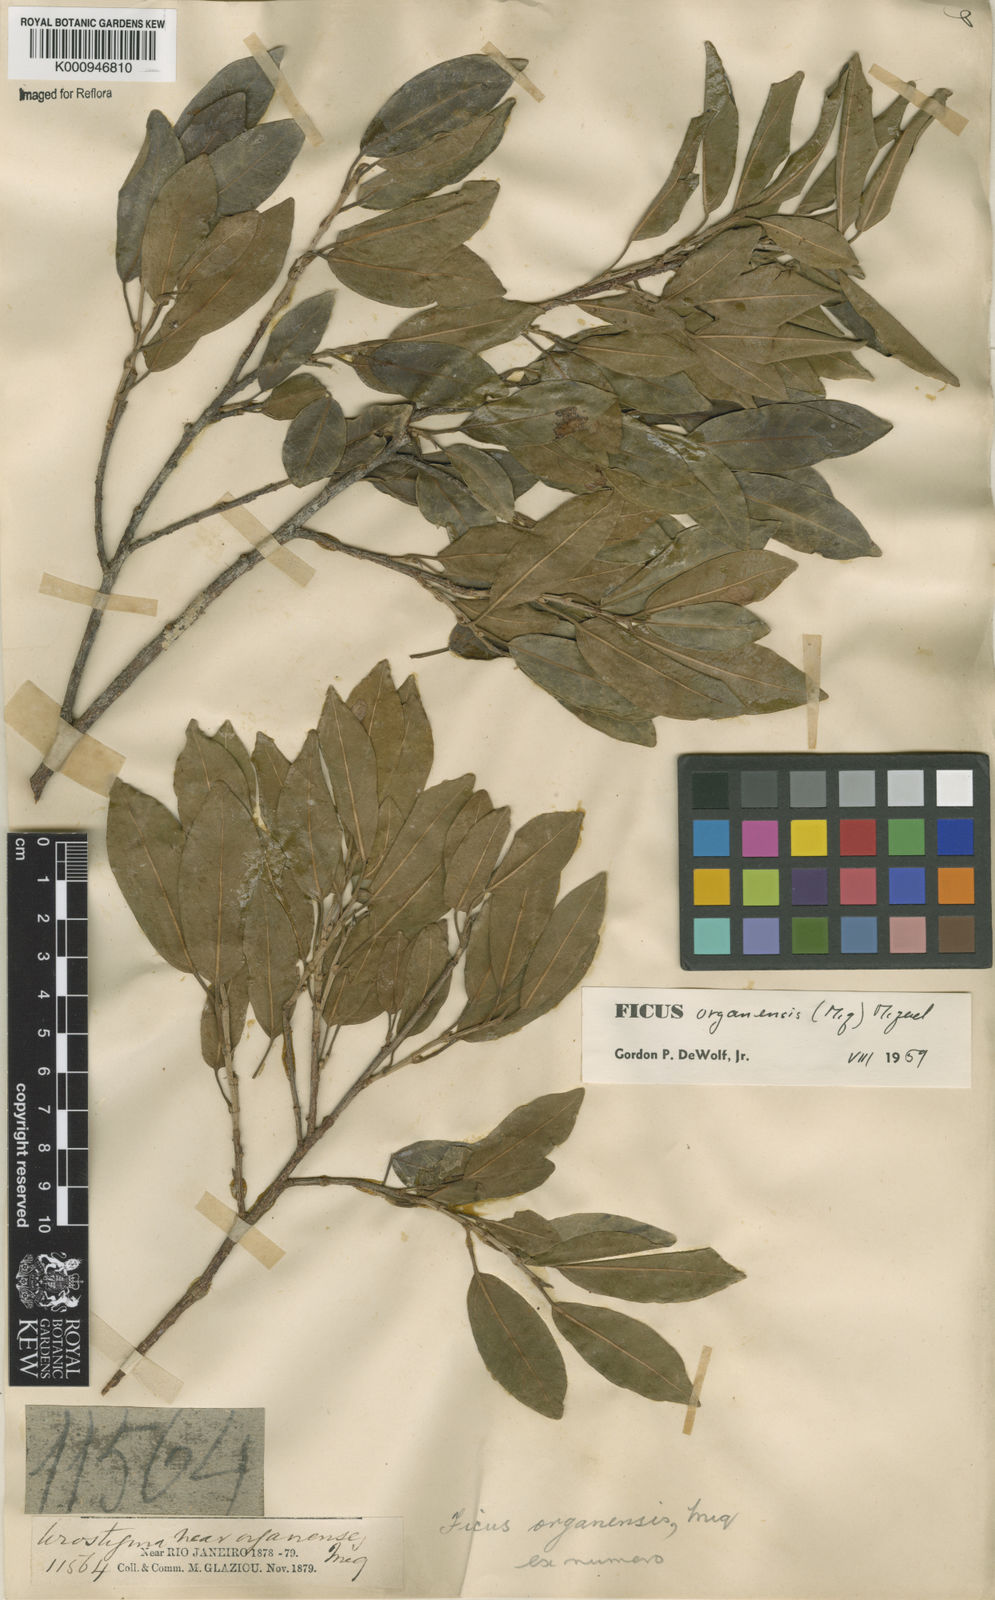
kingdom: Plantae
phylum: Tracheophyta
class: Magnoliopsida
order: Rosales
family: Moraceae
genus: Ficus
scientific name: Ficus organensis
